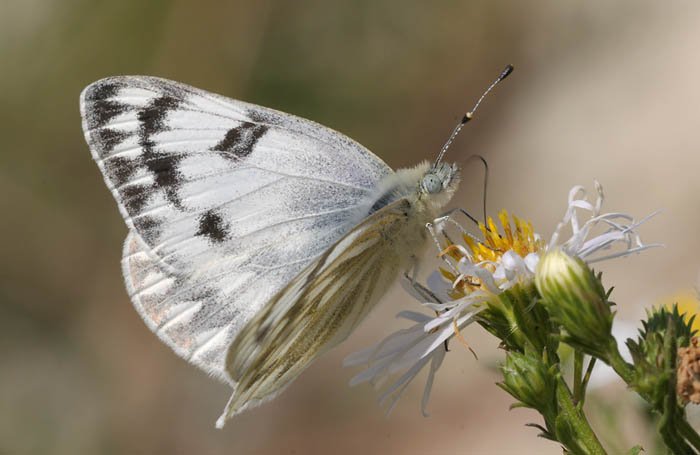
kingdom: Animalia
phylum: Arthropoda
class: Insecta
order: Lepidoptera
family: Pieridae
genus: Pontia
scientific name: Pontia occidentalis
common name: Western White
